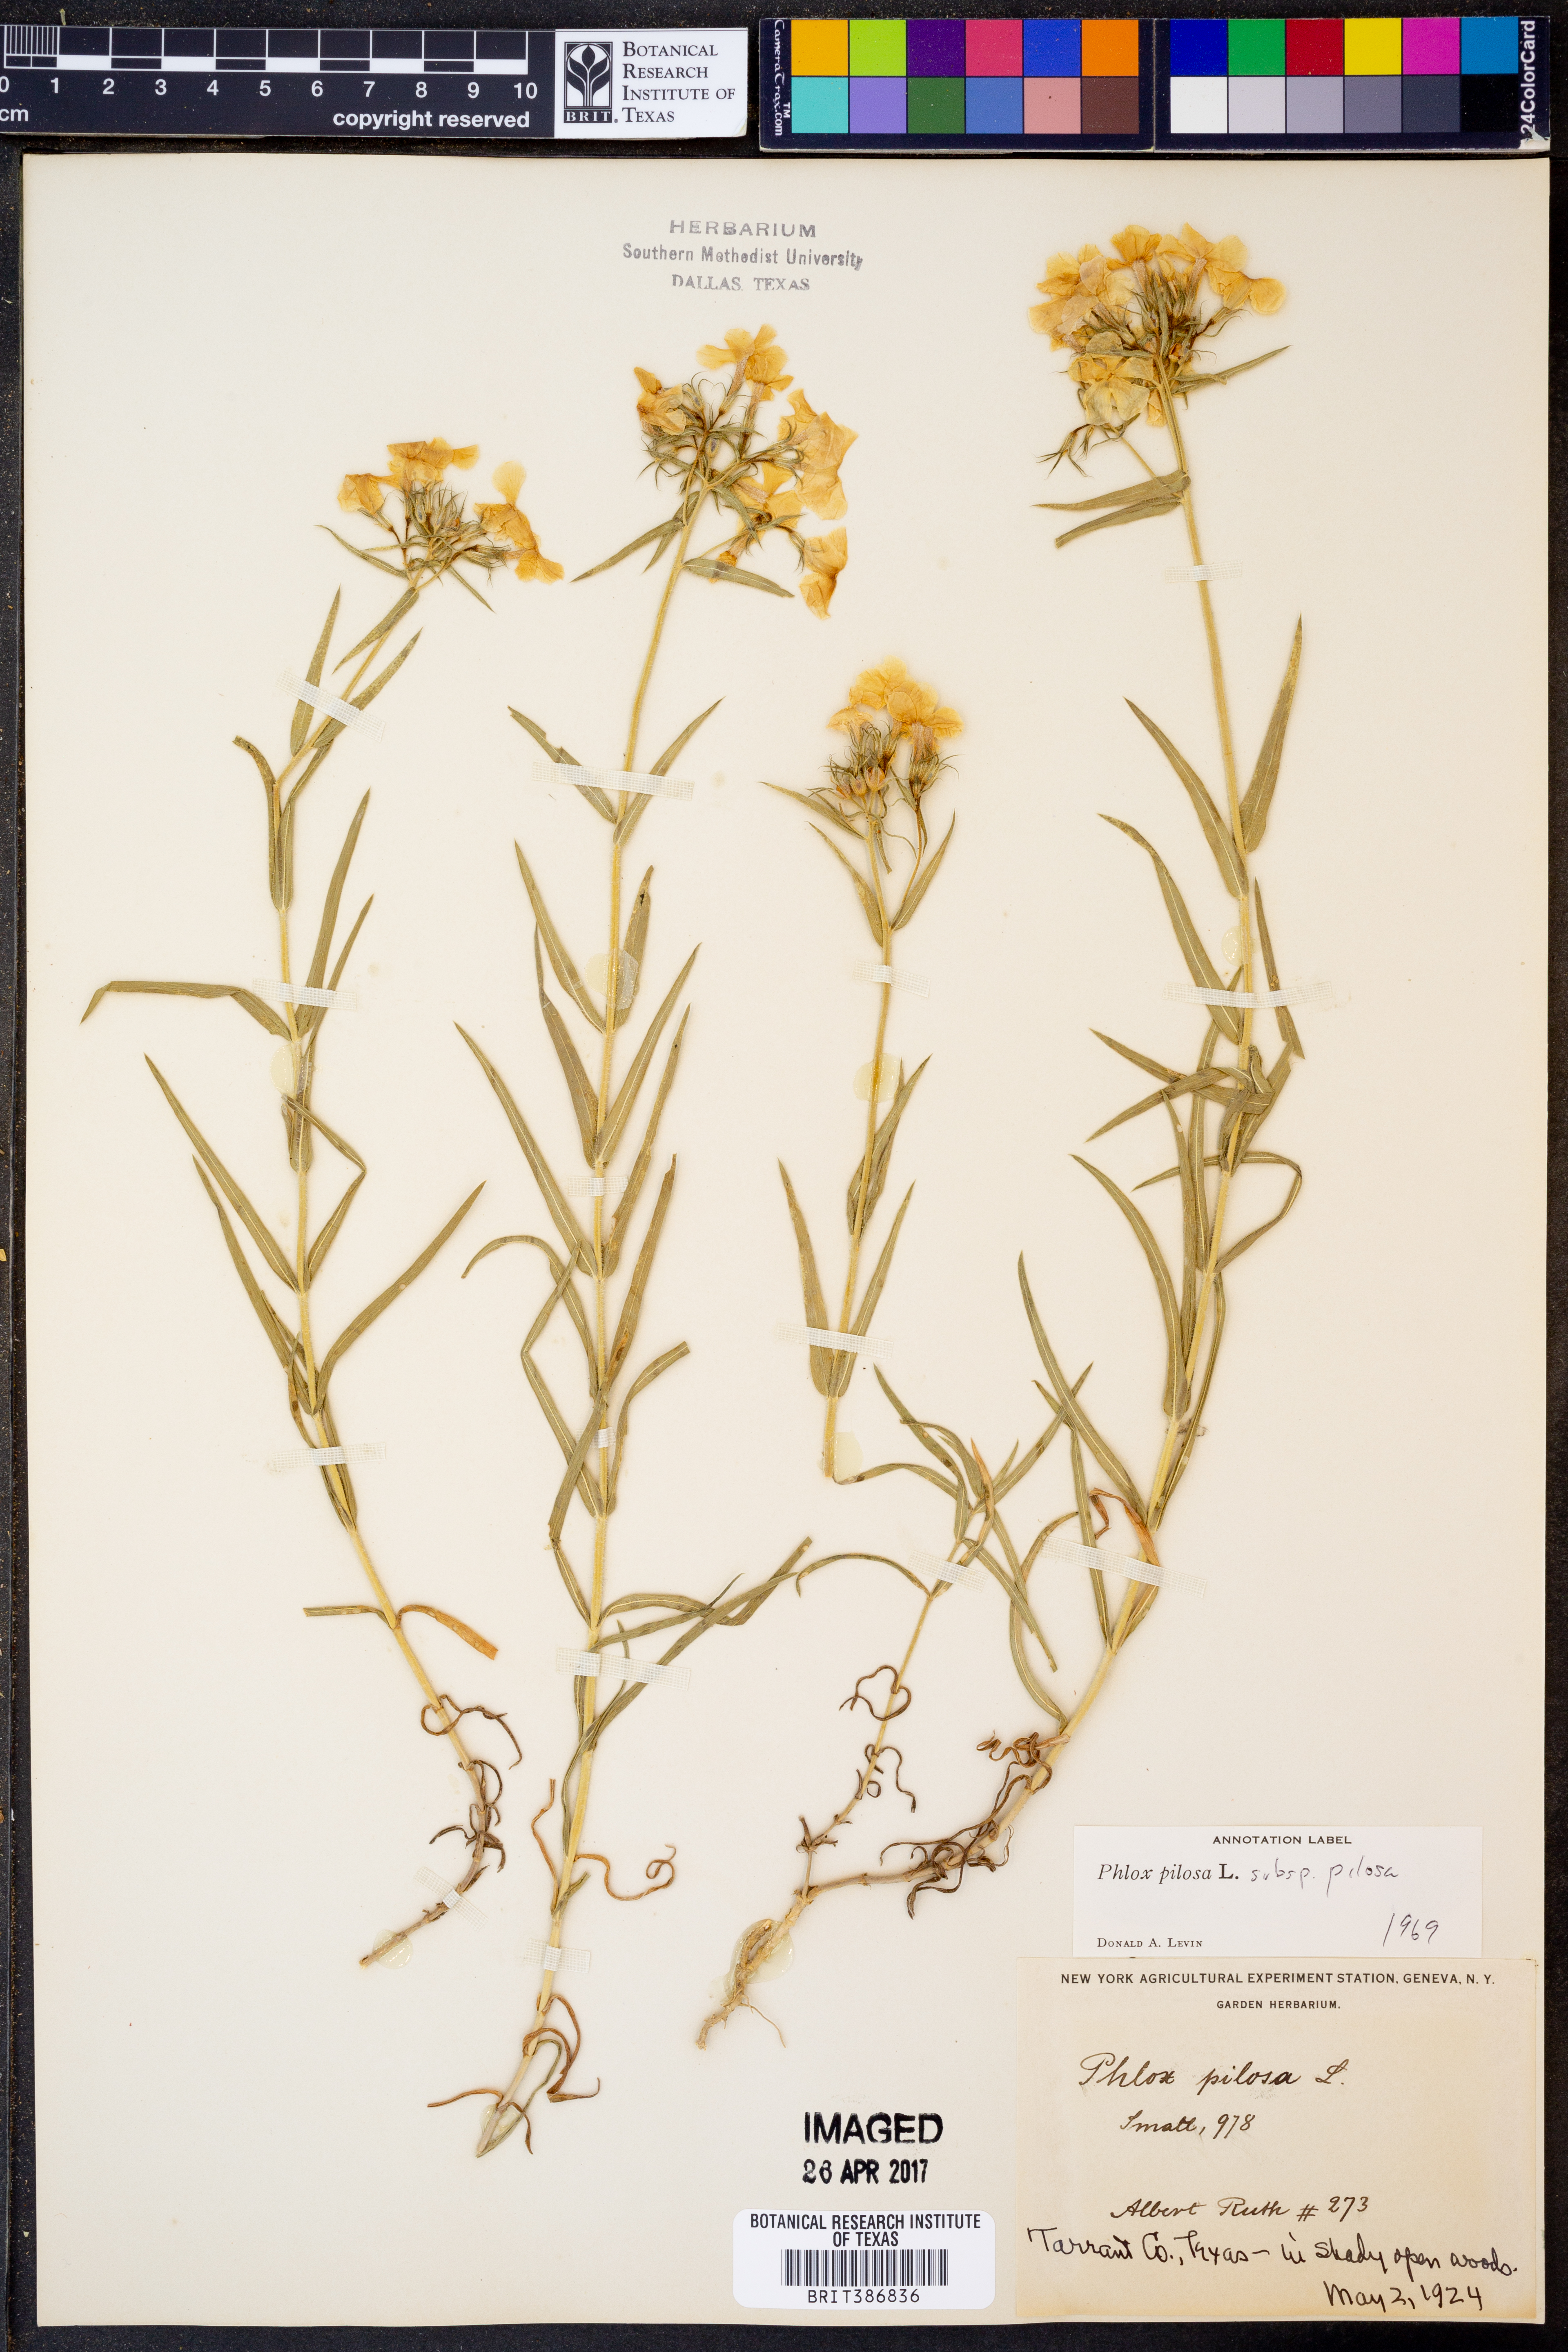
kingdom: Plantae
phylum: Tracheophyta
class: Magnoliopsida
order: Ericales
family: Polemoniaceae
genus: Phlox
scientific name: Phlox pilosa
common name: Prairie phlox
